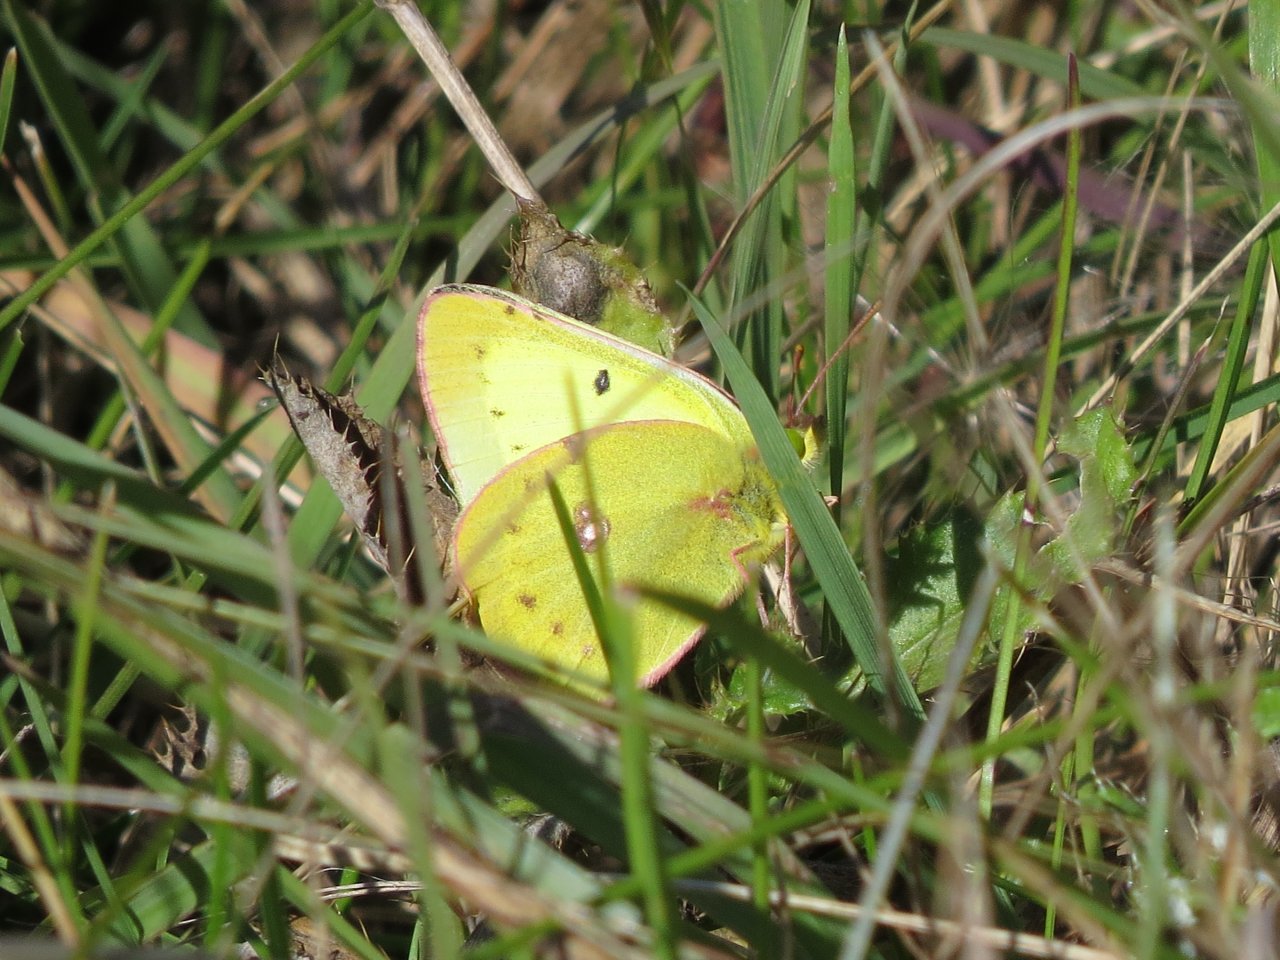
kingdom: Animalia
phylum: Arthropoda
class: Insecta
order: Lepidoptera
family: Pieridae
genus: Colias
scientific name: Colias philodice
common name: Clouded Sulphur
